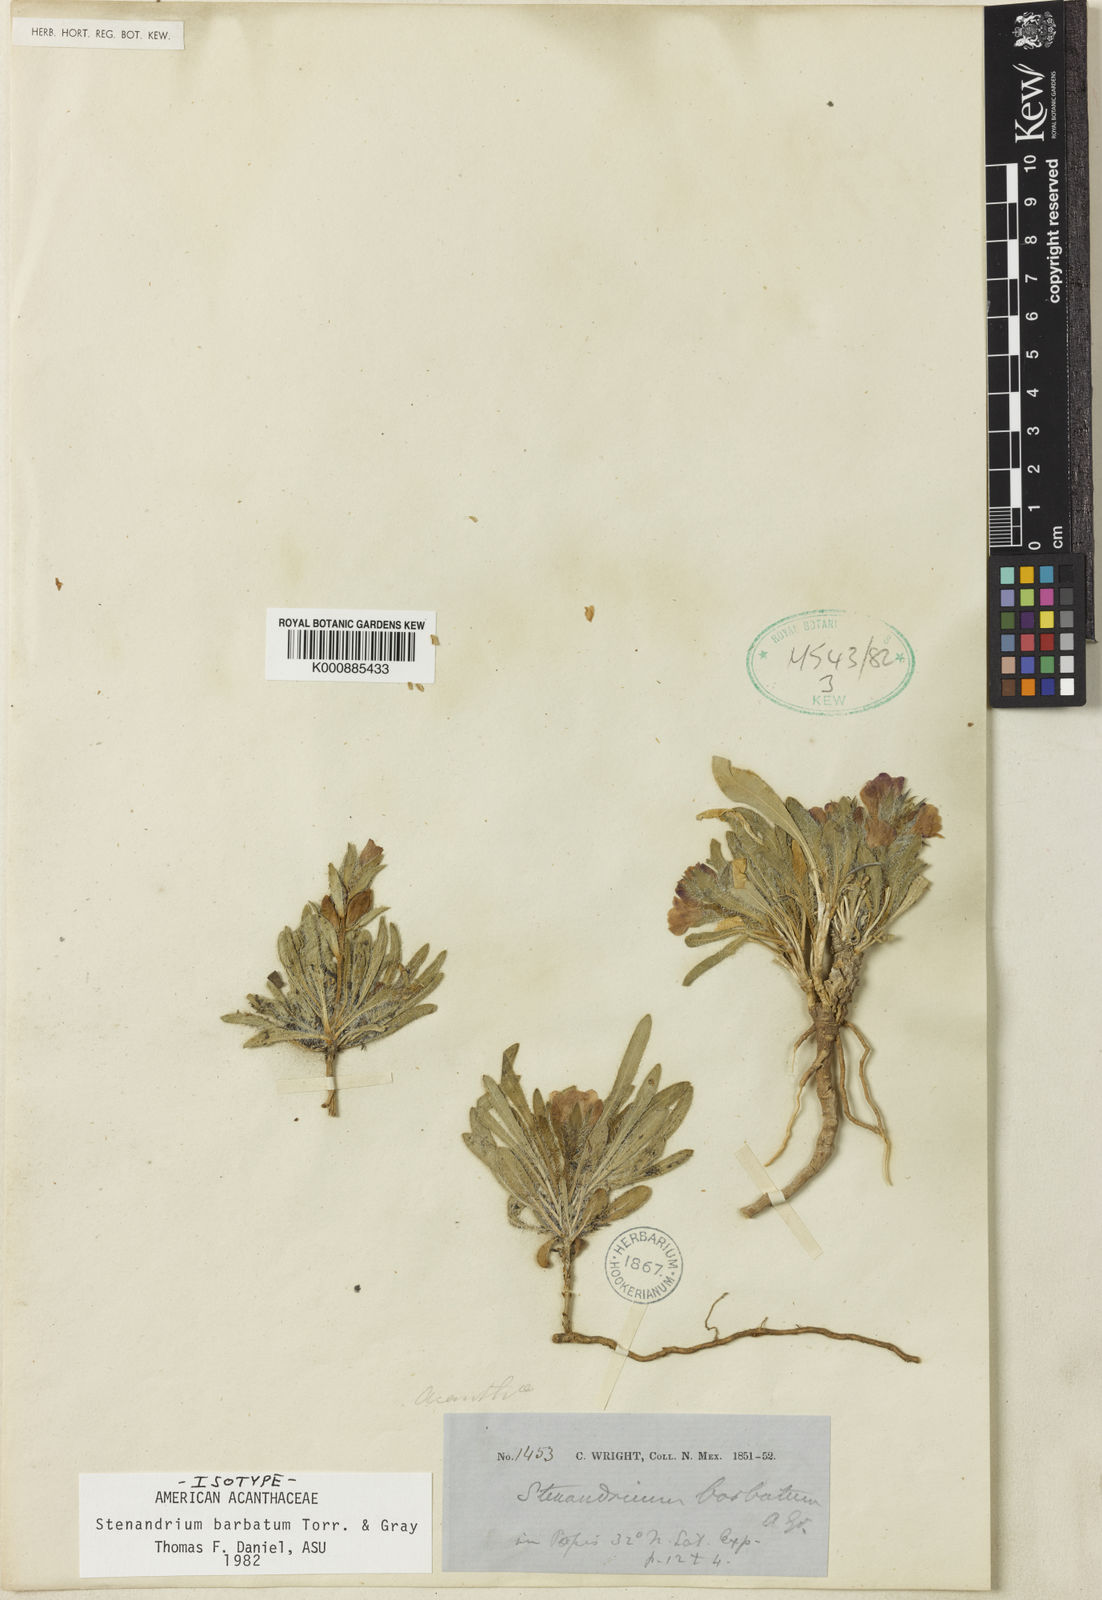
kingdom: Plantae
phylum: Tracheophyta
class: Magnoliopsida
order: Lamiales
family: Acanthaceae
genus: Stenandrium
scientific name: Stenandrium barbatum
